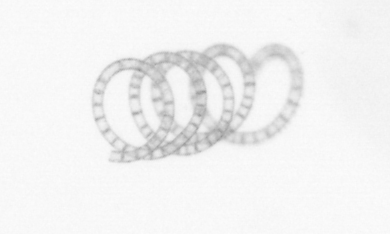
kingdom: Chromista
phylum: Ochrophyta
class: Bacillariophyceae
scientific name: Bacillariophyceae
